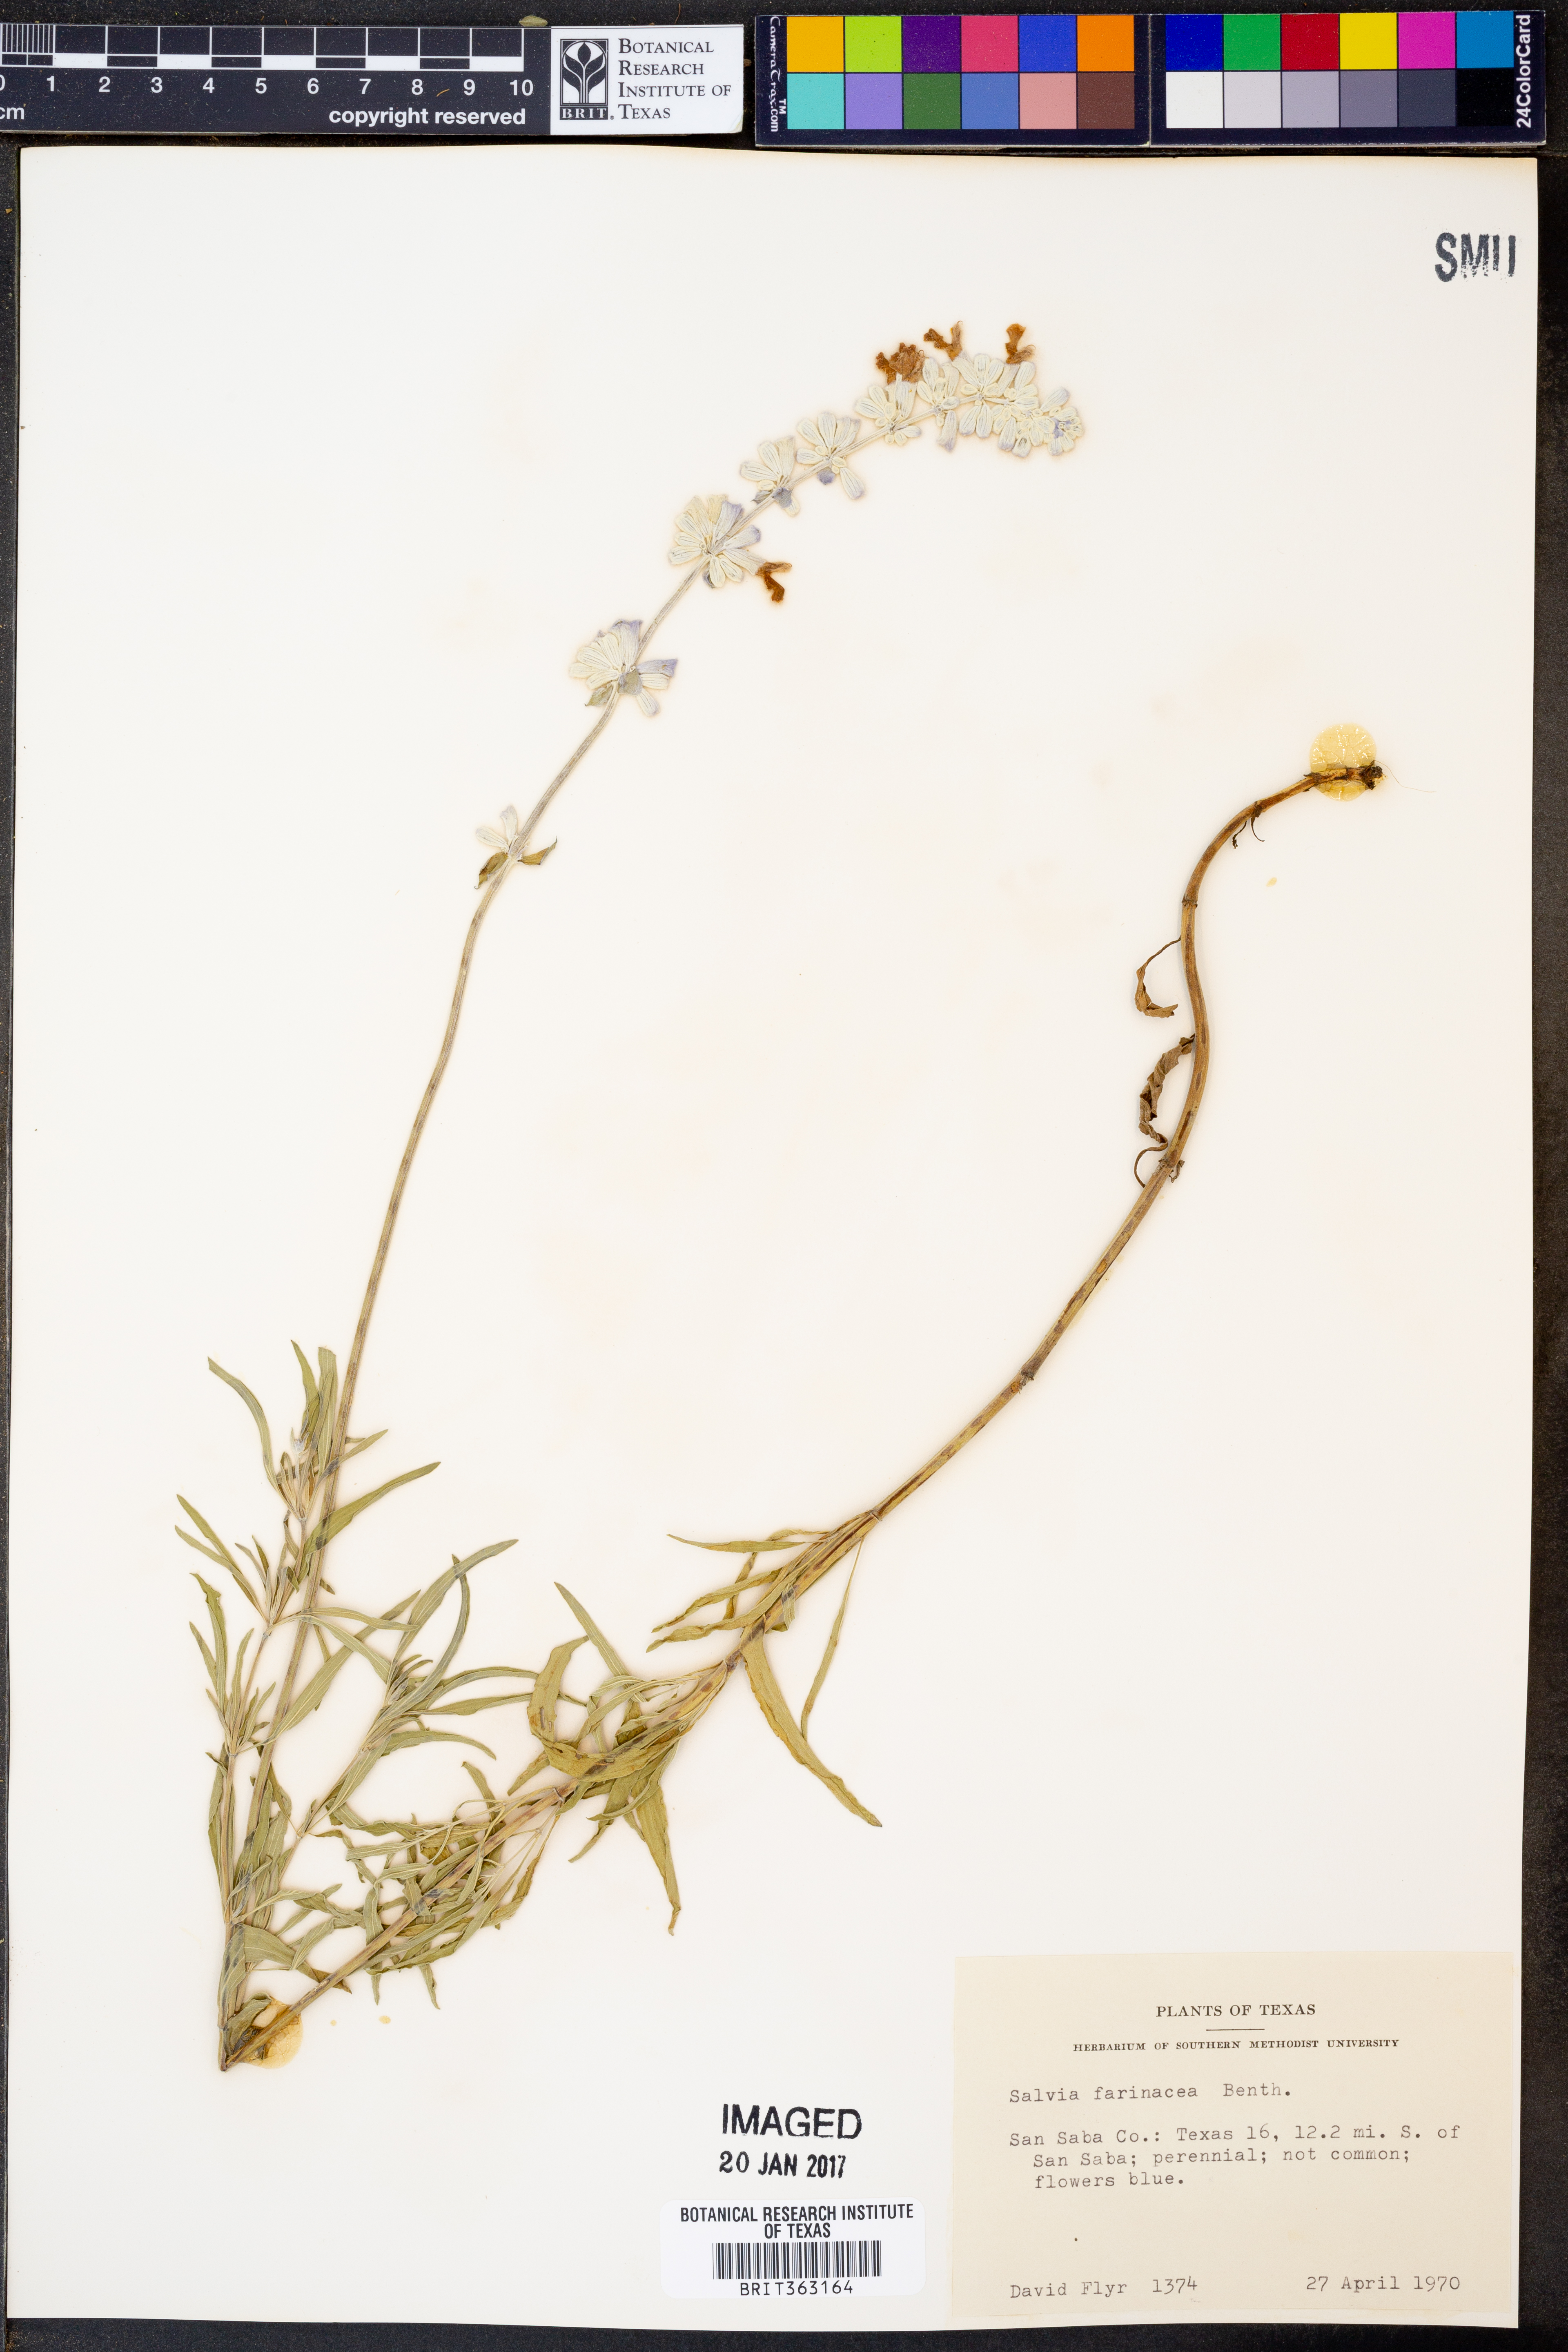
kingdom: Plantae
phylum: Tracheophyta
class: Magnoliopsida
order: Lamiales
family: Lamiaceae
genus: Salvia
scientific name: Salvia farinacea
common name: Mealy sage
